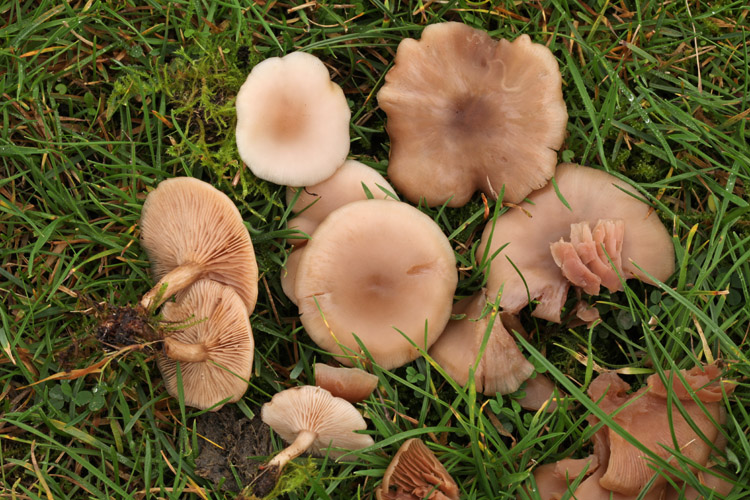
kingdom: Fungi
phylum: Basidiomycota
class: Agaricomycetes
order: Agaricales
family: Tricholomataceae
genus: Clitocybe
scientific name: Clitocybe fragrans
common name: vellugtende tragthat
